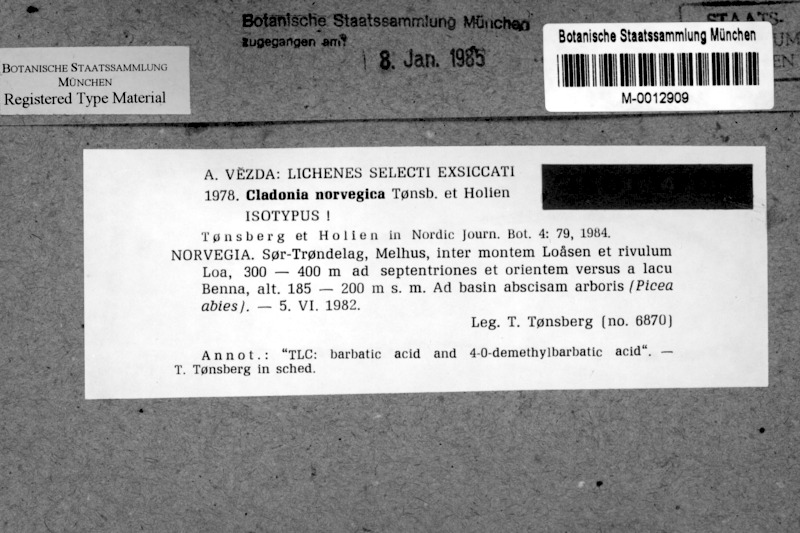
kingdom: Fungi
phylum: Ascomycota
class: Lecanoromycetes
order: Lecanorales
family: Cladoniaceae
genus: Cladonia
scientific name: Cladonia norvegica
